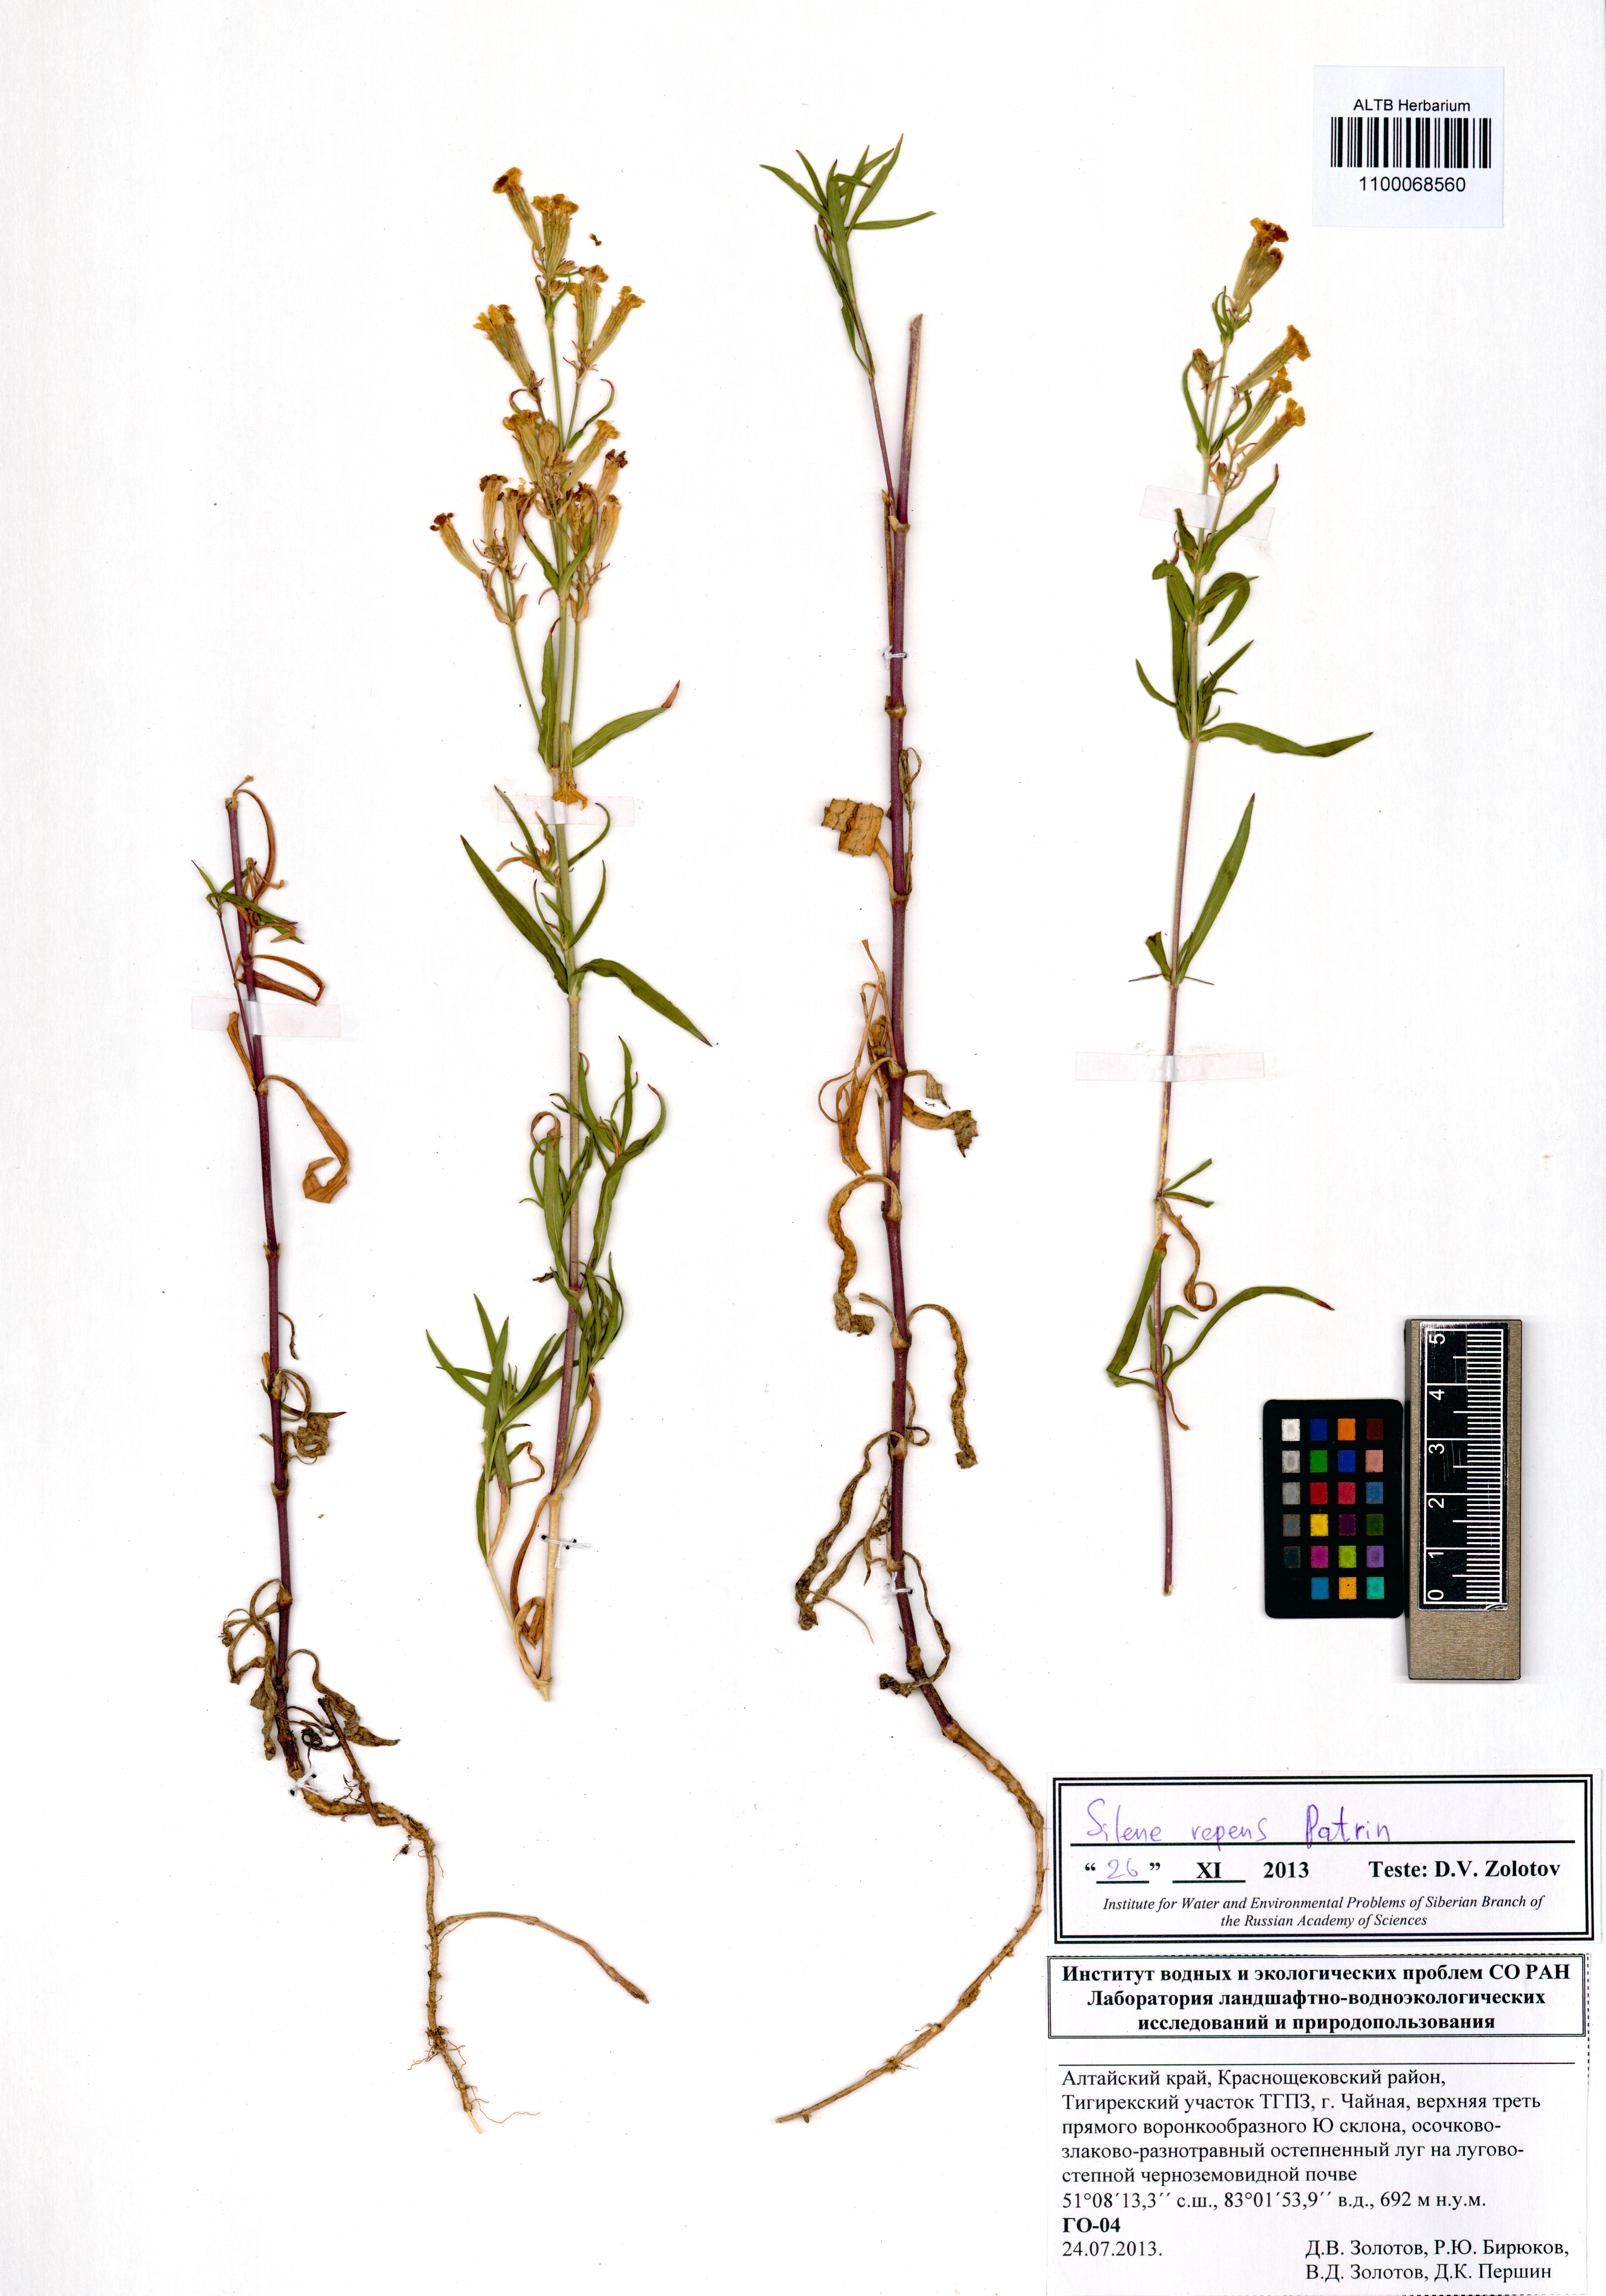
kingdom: Plantae
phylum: Tracheophyta
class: Magnoliopsida
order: Caryophyllales
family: Caryophyllaceae
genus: Silene
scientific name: Silene repens
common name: Pink campion
